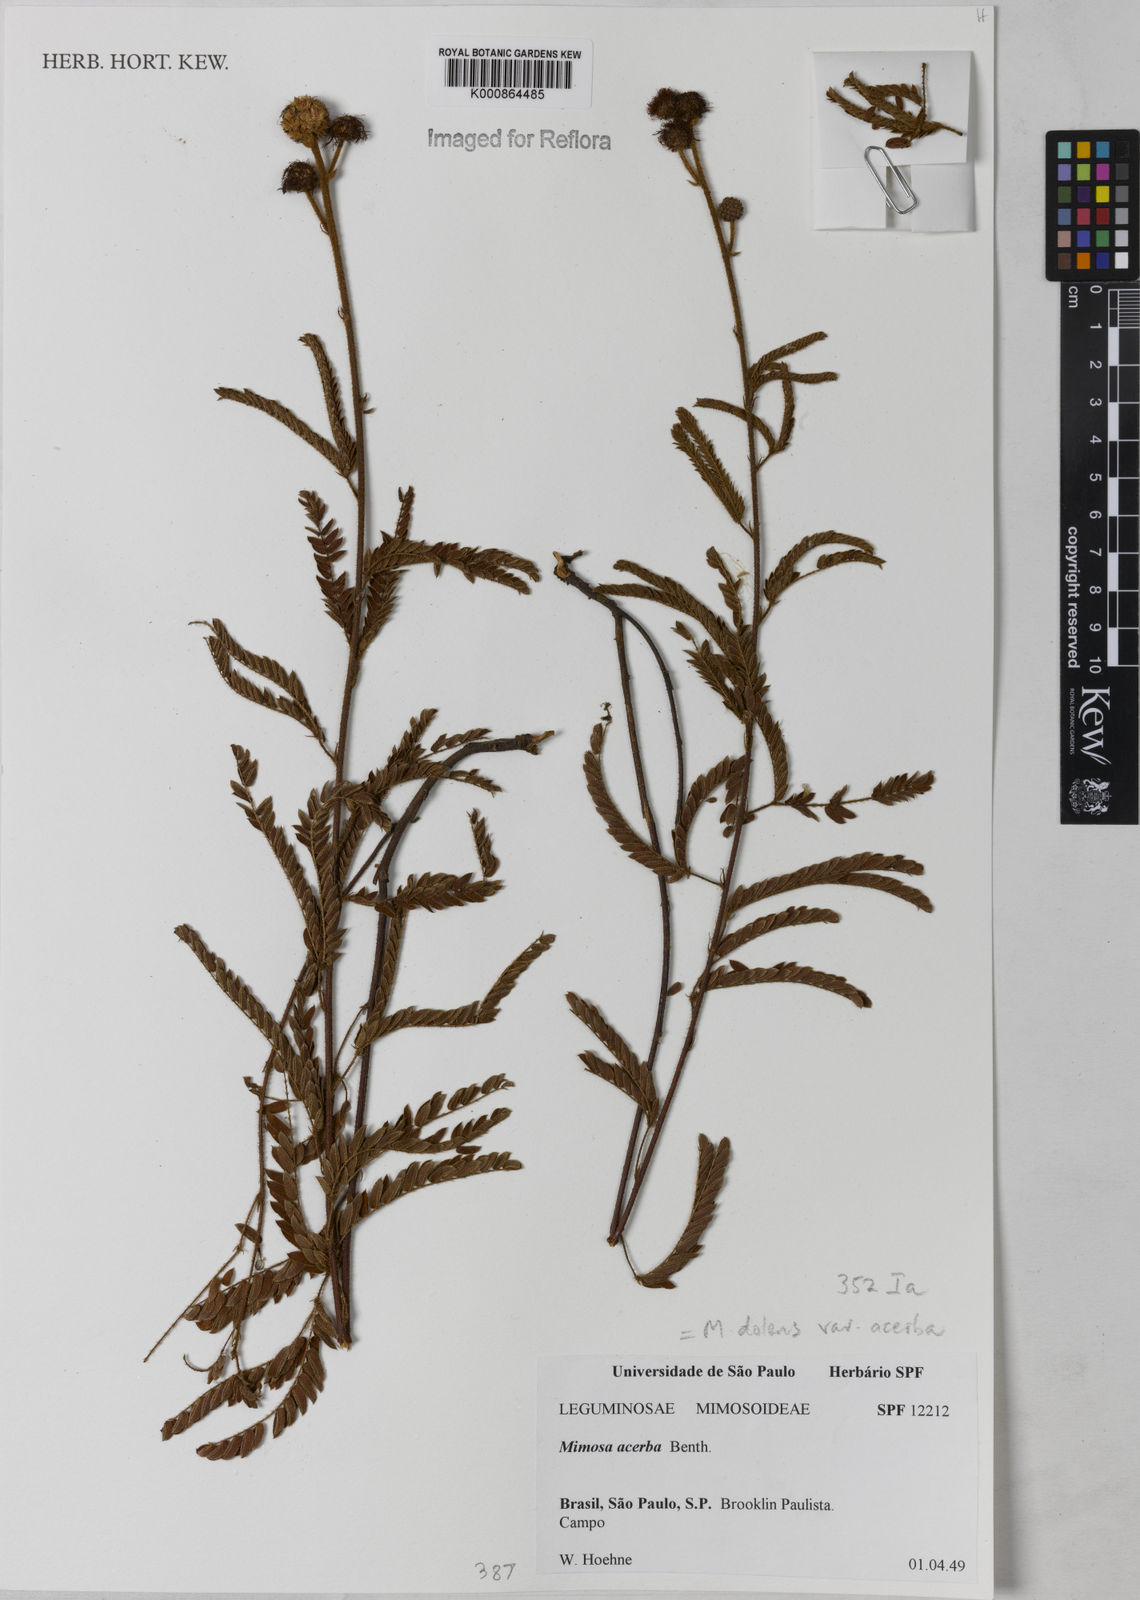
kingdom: Plantae
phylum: Tracheophyta
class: Magnoliopsida
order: Fabales
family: Fabaceae
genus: Mimosa
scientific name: Mimosa dolens
